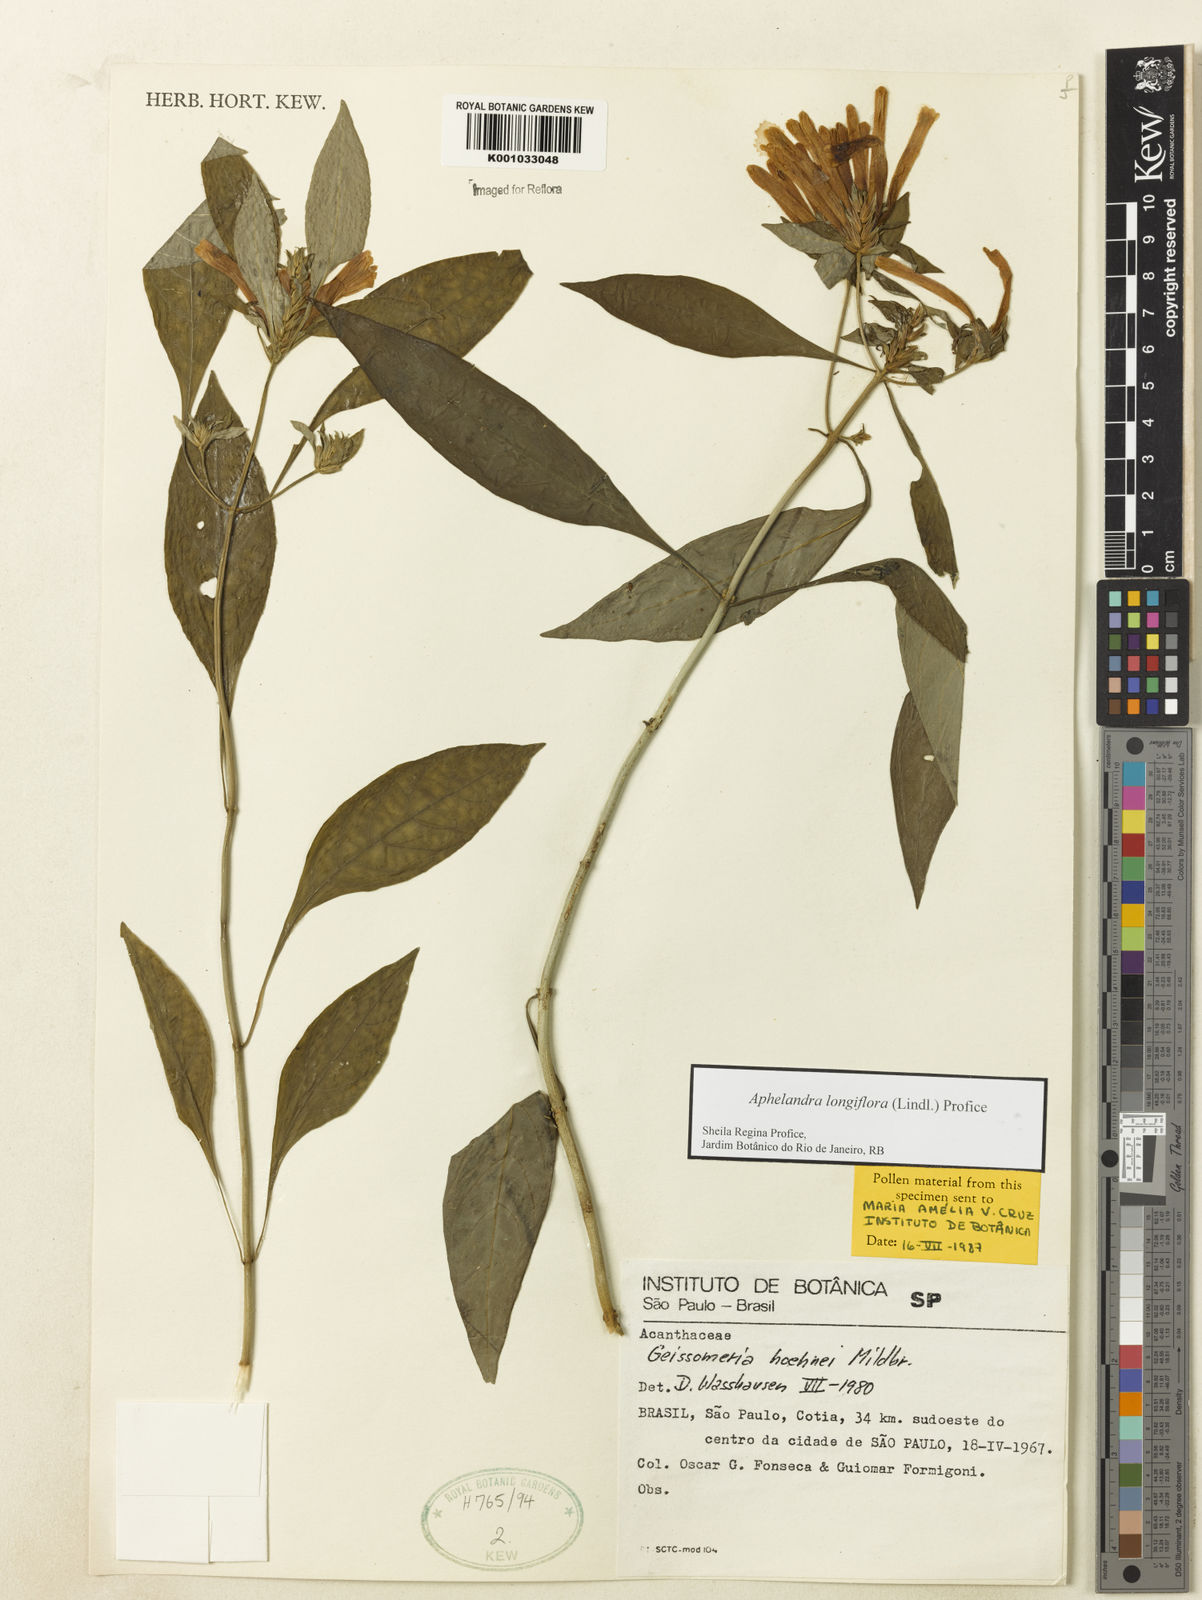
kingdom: Plantae
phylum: Tracheophyta
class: Magnoliopsida
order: Lamiales
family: Acanthaceae
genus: Aphelandra
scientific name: Aphelandra longiflora
